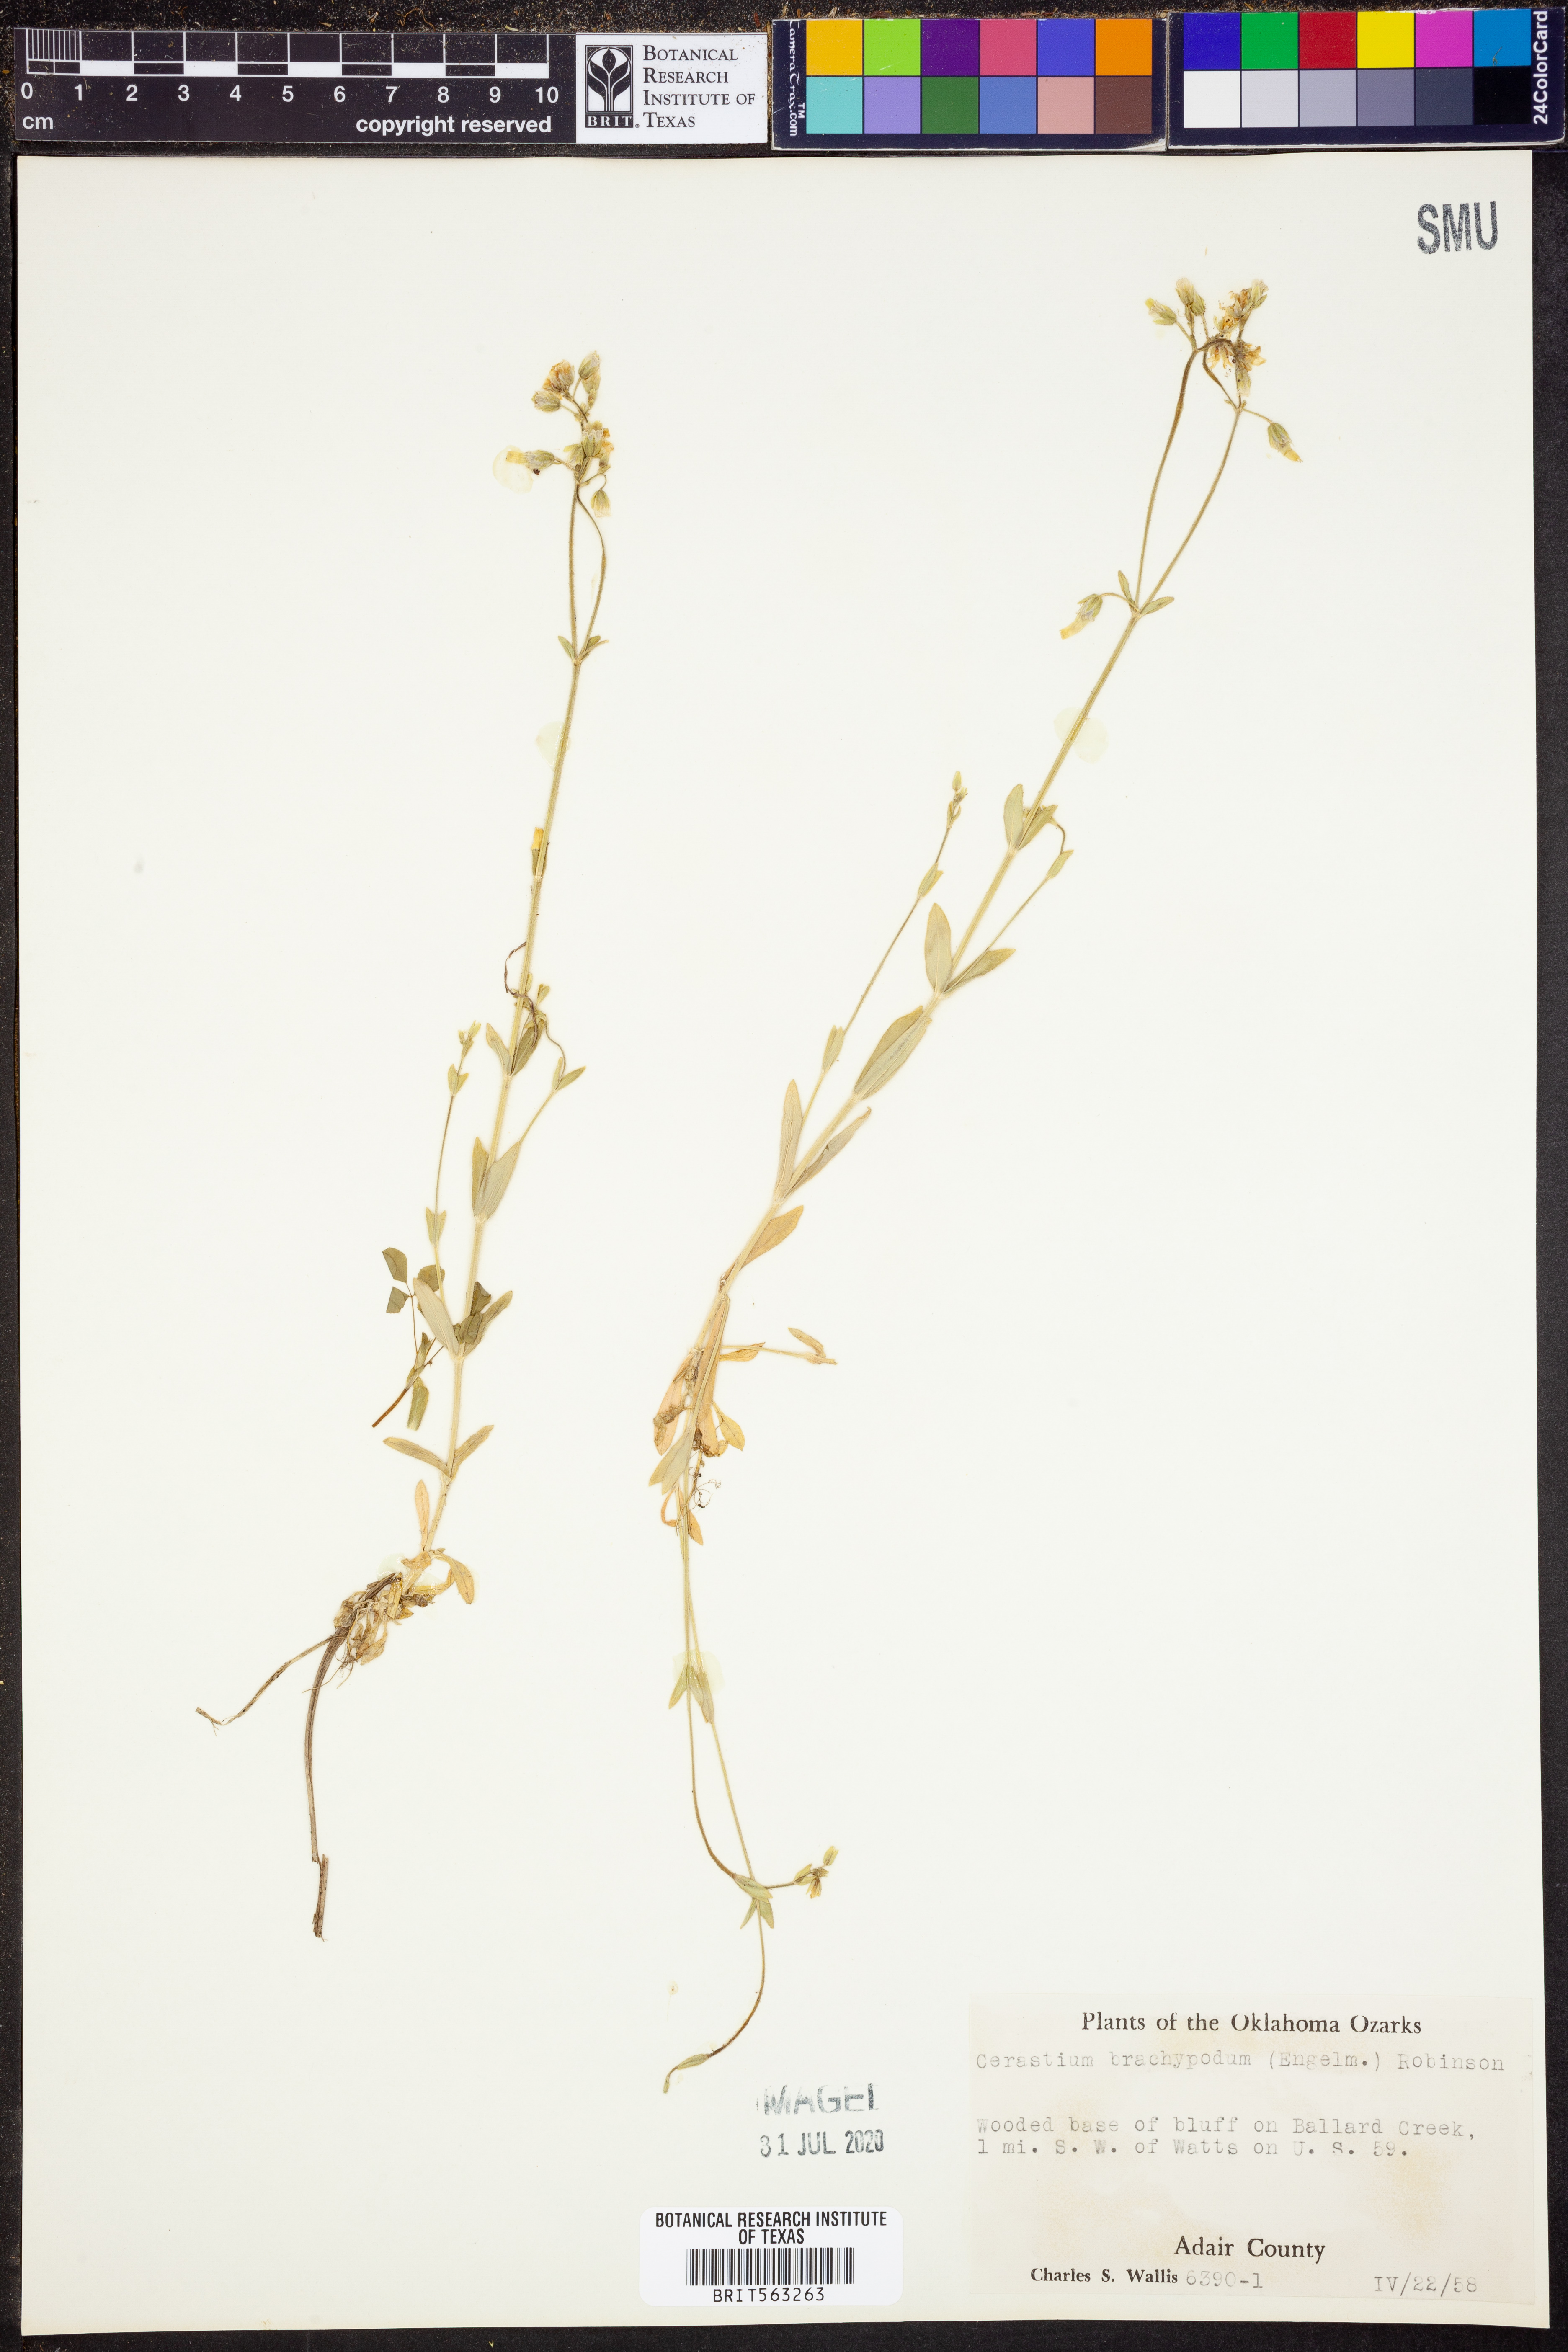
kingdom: Plantae
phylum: Tracheophyta
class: Magnoliopsida
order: Caryophyllales
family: Caryophyllaceae
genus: Cerastium
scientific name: Cerastium brachypodum
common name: Short-pedicelled nodding chickweed
